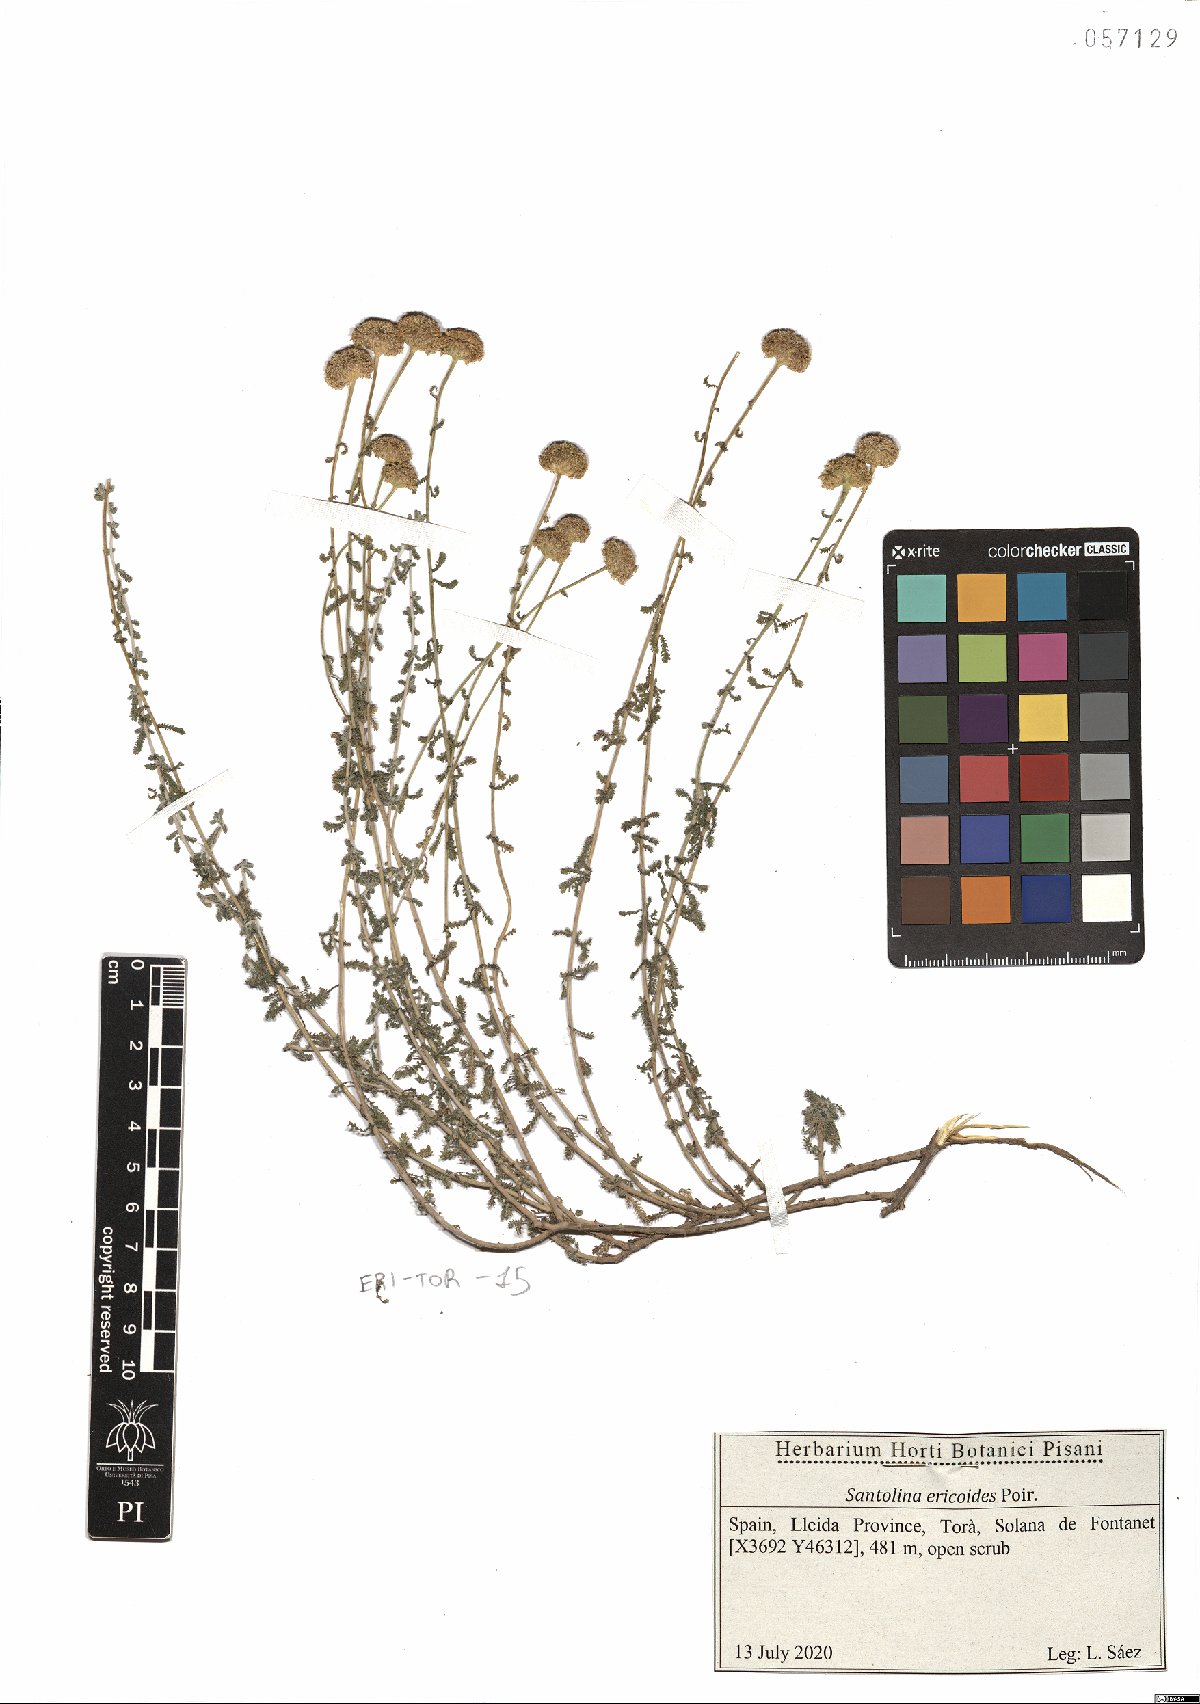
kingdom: Plantae
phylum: Tracheophyta
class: Magnoliopsida
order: Asterales
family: Asteraceae
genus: Santolina
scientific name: Santolina ericoides
